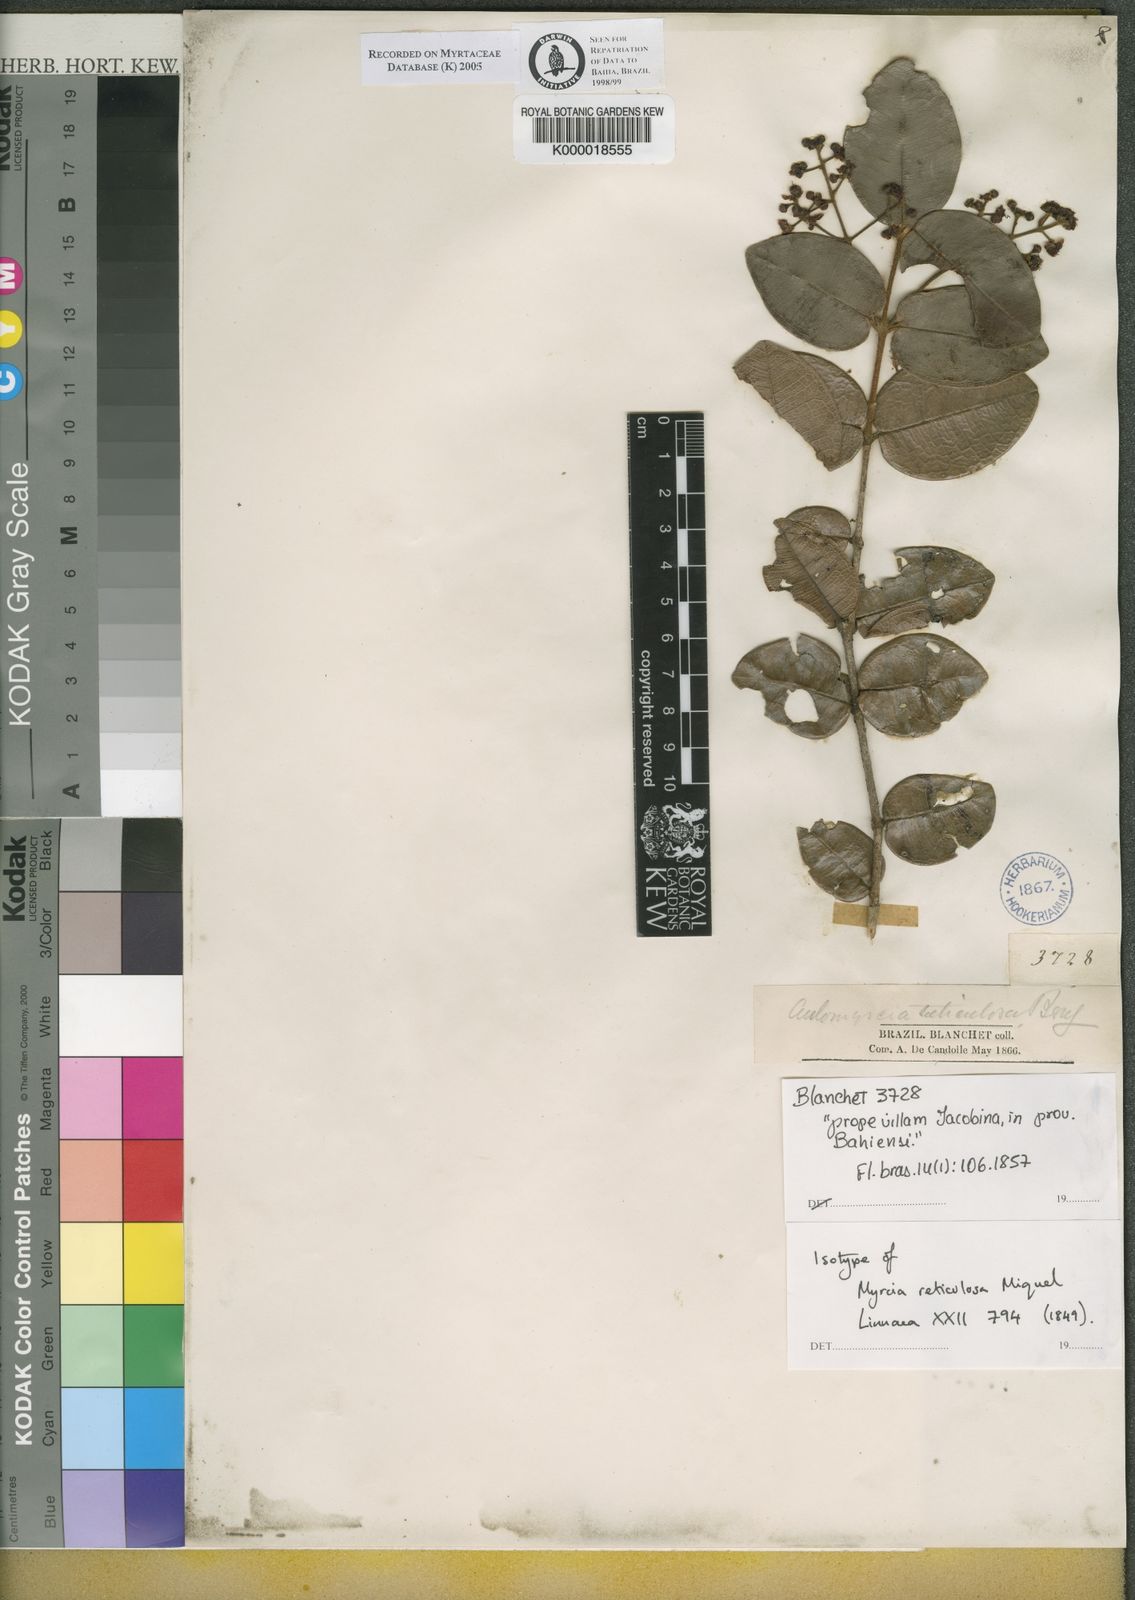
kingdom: Plantae
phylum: Tracheophyta
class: Magnoliopsida
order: Myrtales
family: Myrtaceae
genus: Myrcia
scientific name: Myrcia reticulosa
